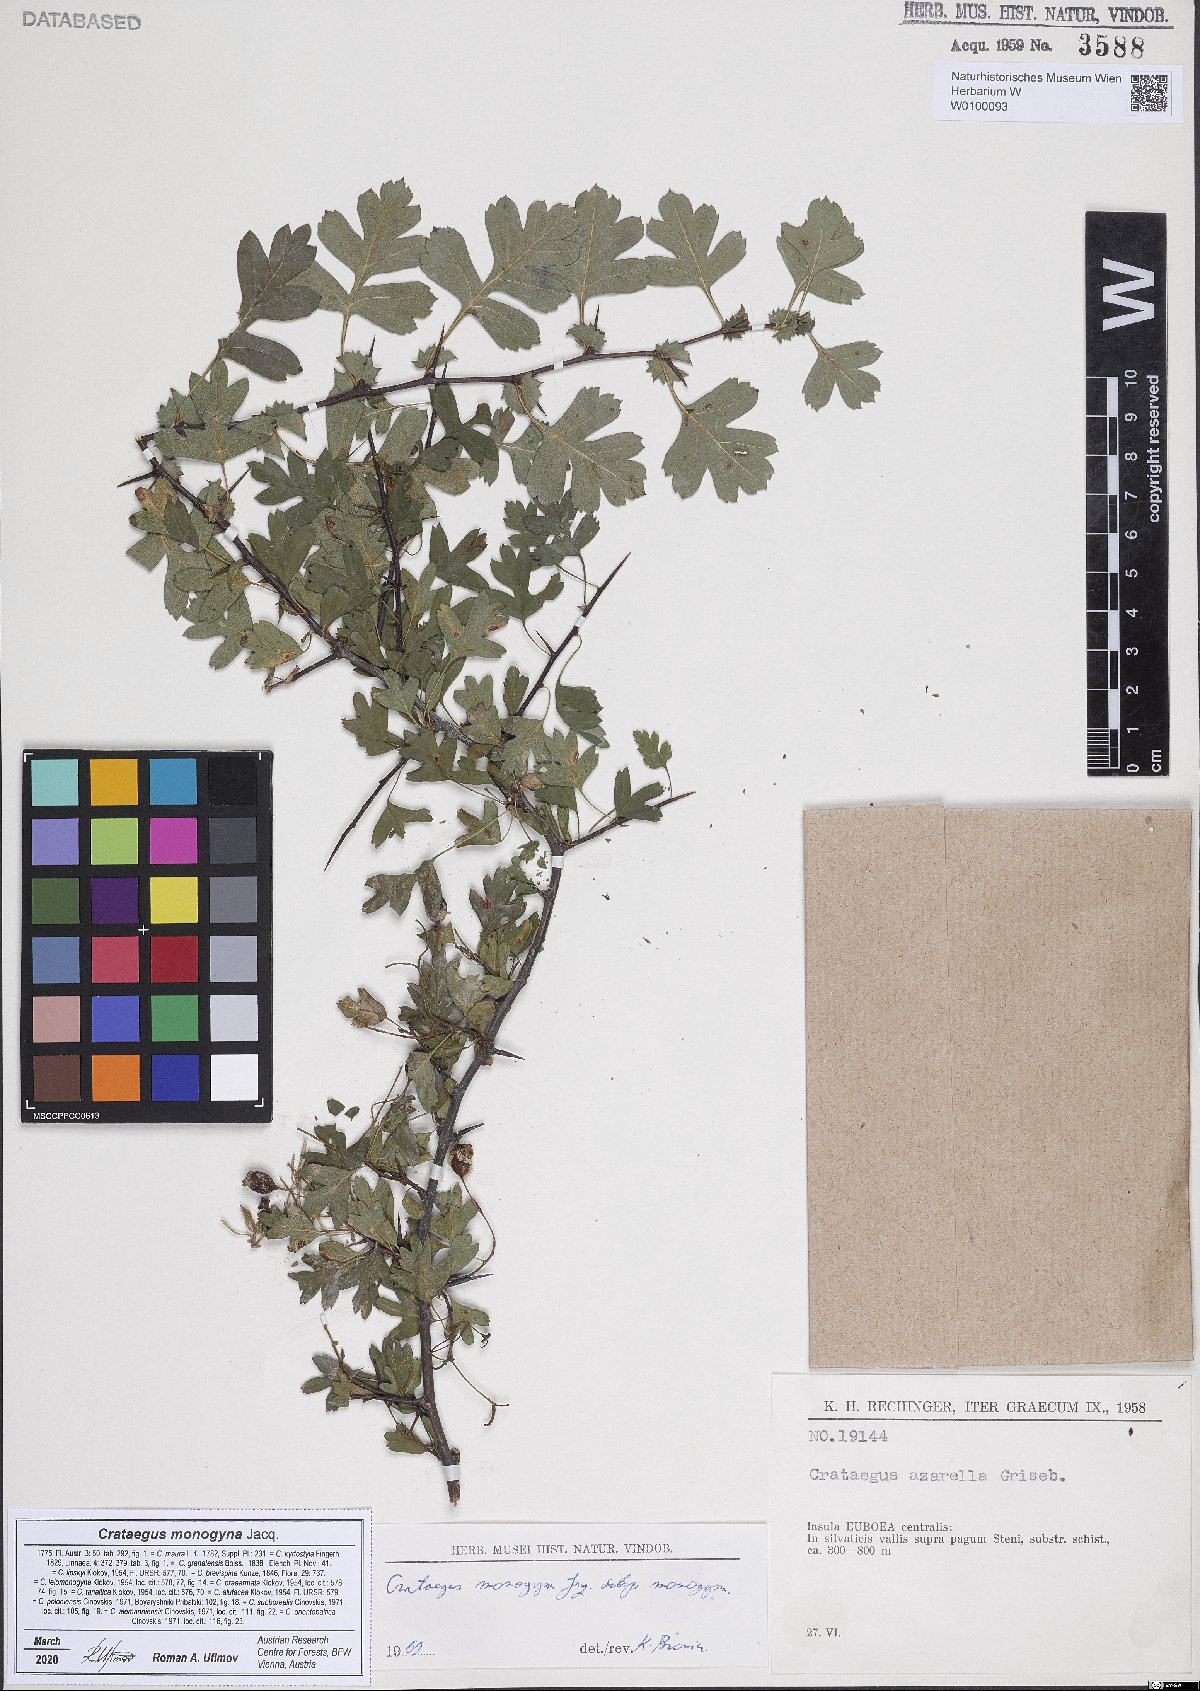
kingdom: Plantae
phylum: Tracheophyta
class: Magnoliopsida
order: Rosales
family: Rosaceae
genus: Crataegus
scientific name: Crataegus monogyna
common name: Hawthorn
